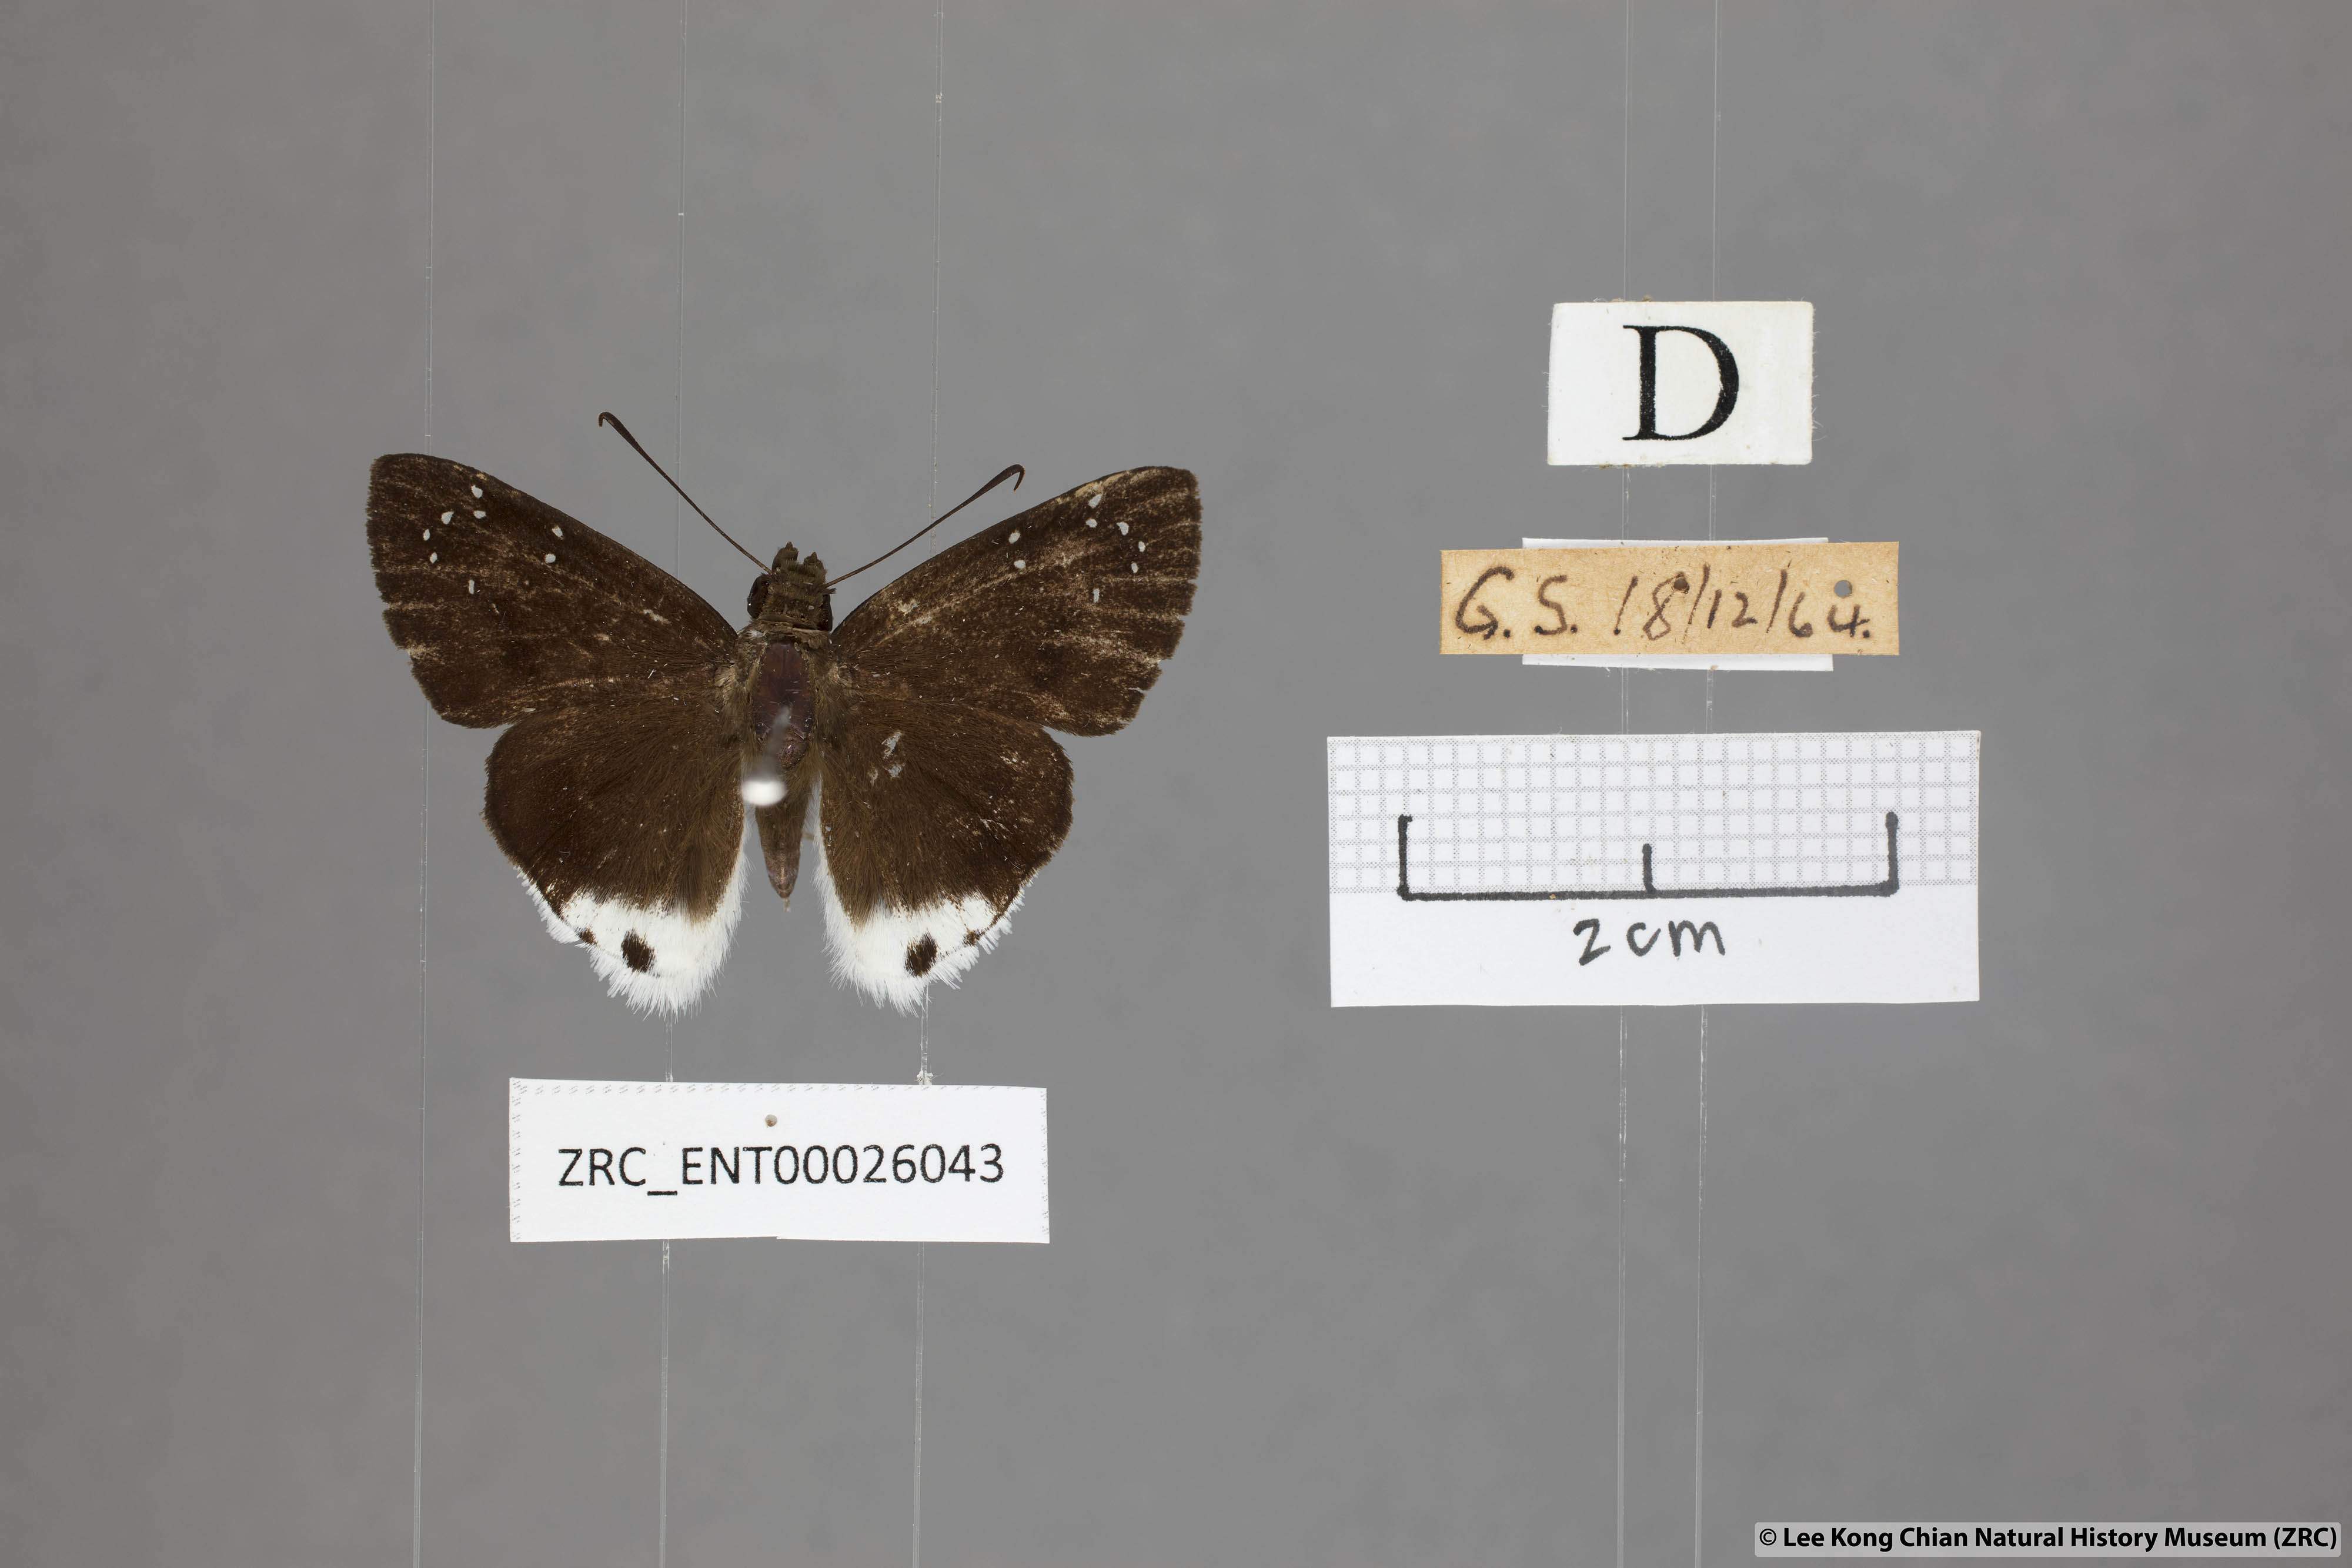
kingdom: Animalia
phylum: Arthropoda
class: Insecta
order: Lepidoptera
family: Hesperiidae
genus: Tagiades
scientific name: Tagiades toba
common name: Different-spotted snow flat
